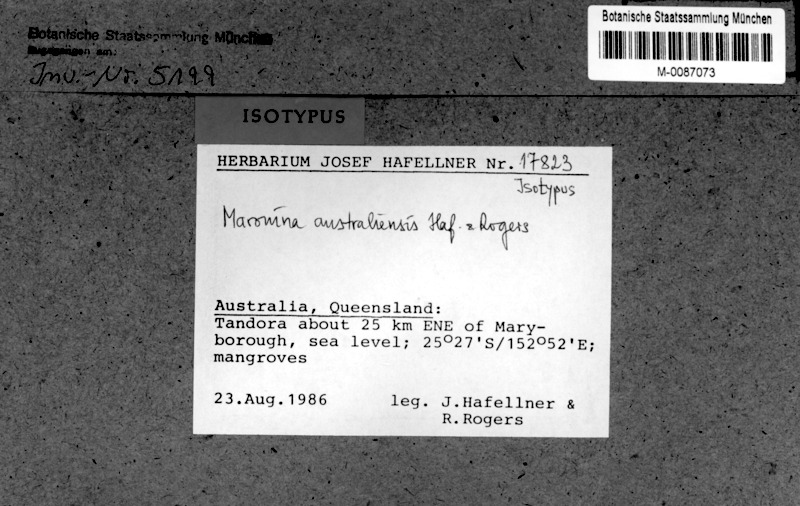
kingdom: Fungi
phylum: Ascomycota
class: Lecanoromycetes
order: Lecanorales
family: Parmeliaceae
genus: Protoparmelia
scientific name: Protoparmelia australiensis
